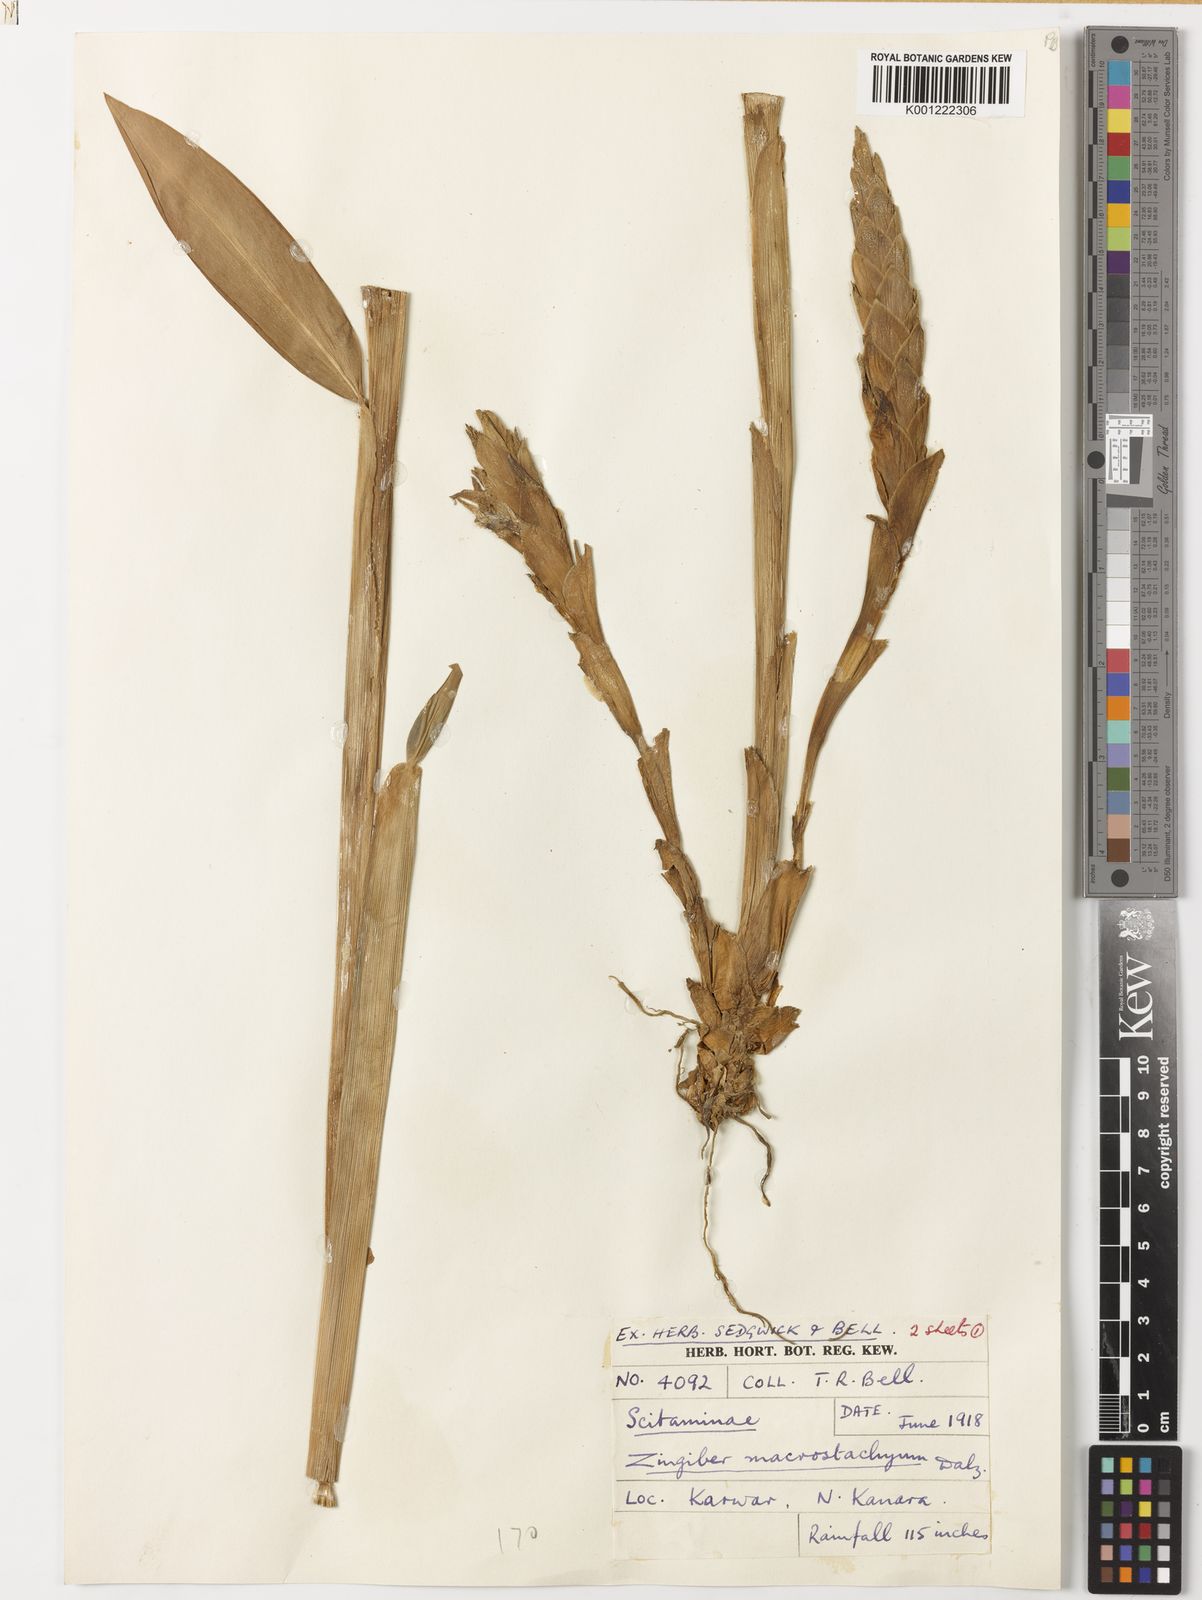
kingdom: Plantae
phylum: Tracheophyta
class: Liliopsida
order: Zingiberales
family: Zingiberaceae
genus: Zingiber
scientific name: Zingiber neesanum
